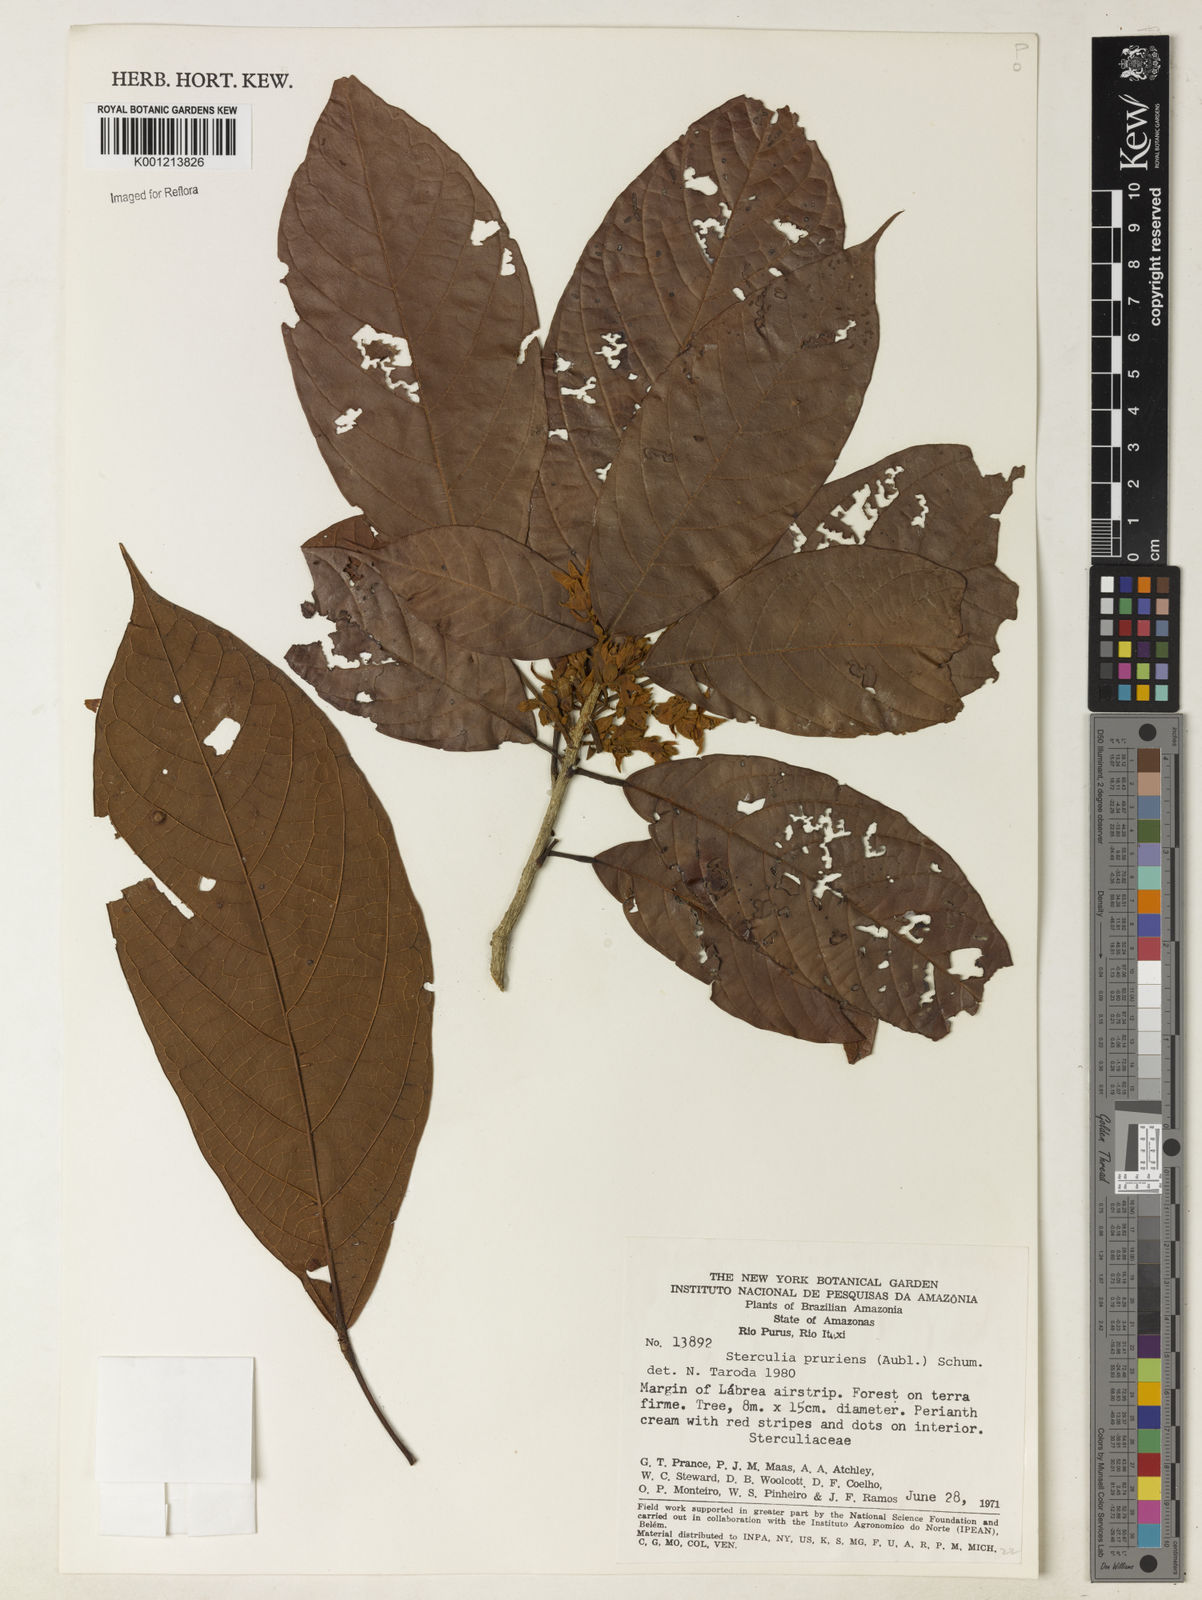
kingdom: Plantae
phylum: Tracheophyta
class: Magnoliopsida
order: Malvales
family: Malvaceae
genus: Sterculia
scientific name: Sterculia pruriens
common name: Grand mahot
